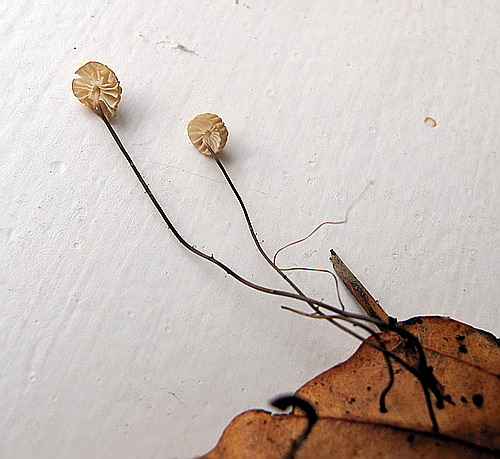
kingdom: Fungi
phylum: Basidiomycota
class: Agaricomycetes
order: Agaricales
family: Marasmiaceae
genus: Marasmius
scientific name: Marasmius bulliardii
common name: furet bruskhat
